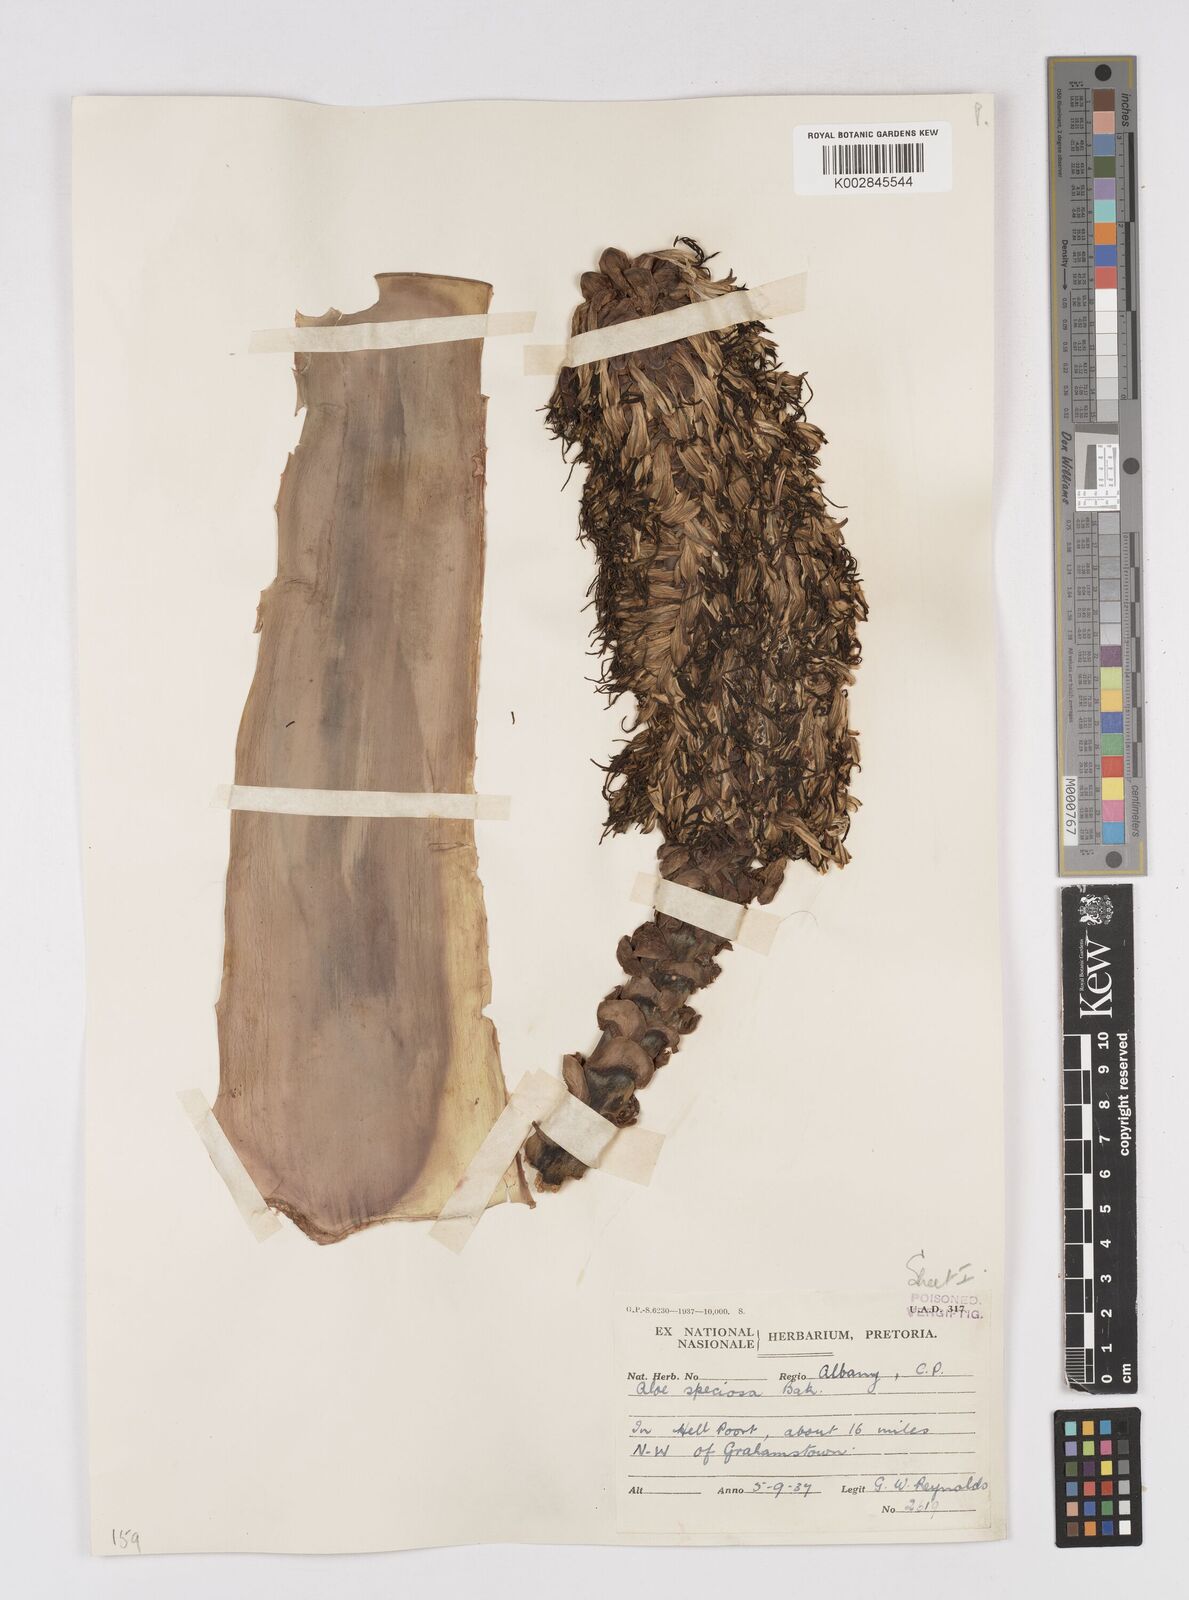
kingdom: Plantae
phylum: Tracheophyta
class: Liliopsida
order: Asparagales
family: Asphodelaceae
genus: Aloe
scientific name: Aloe speciosa
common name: Beautiful aloe
